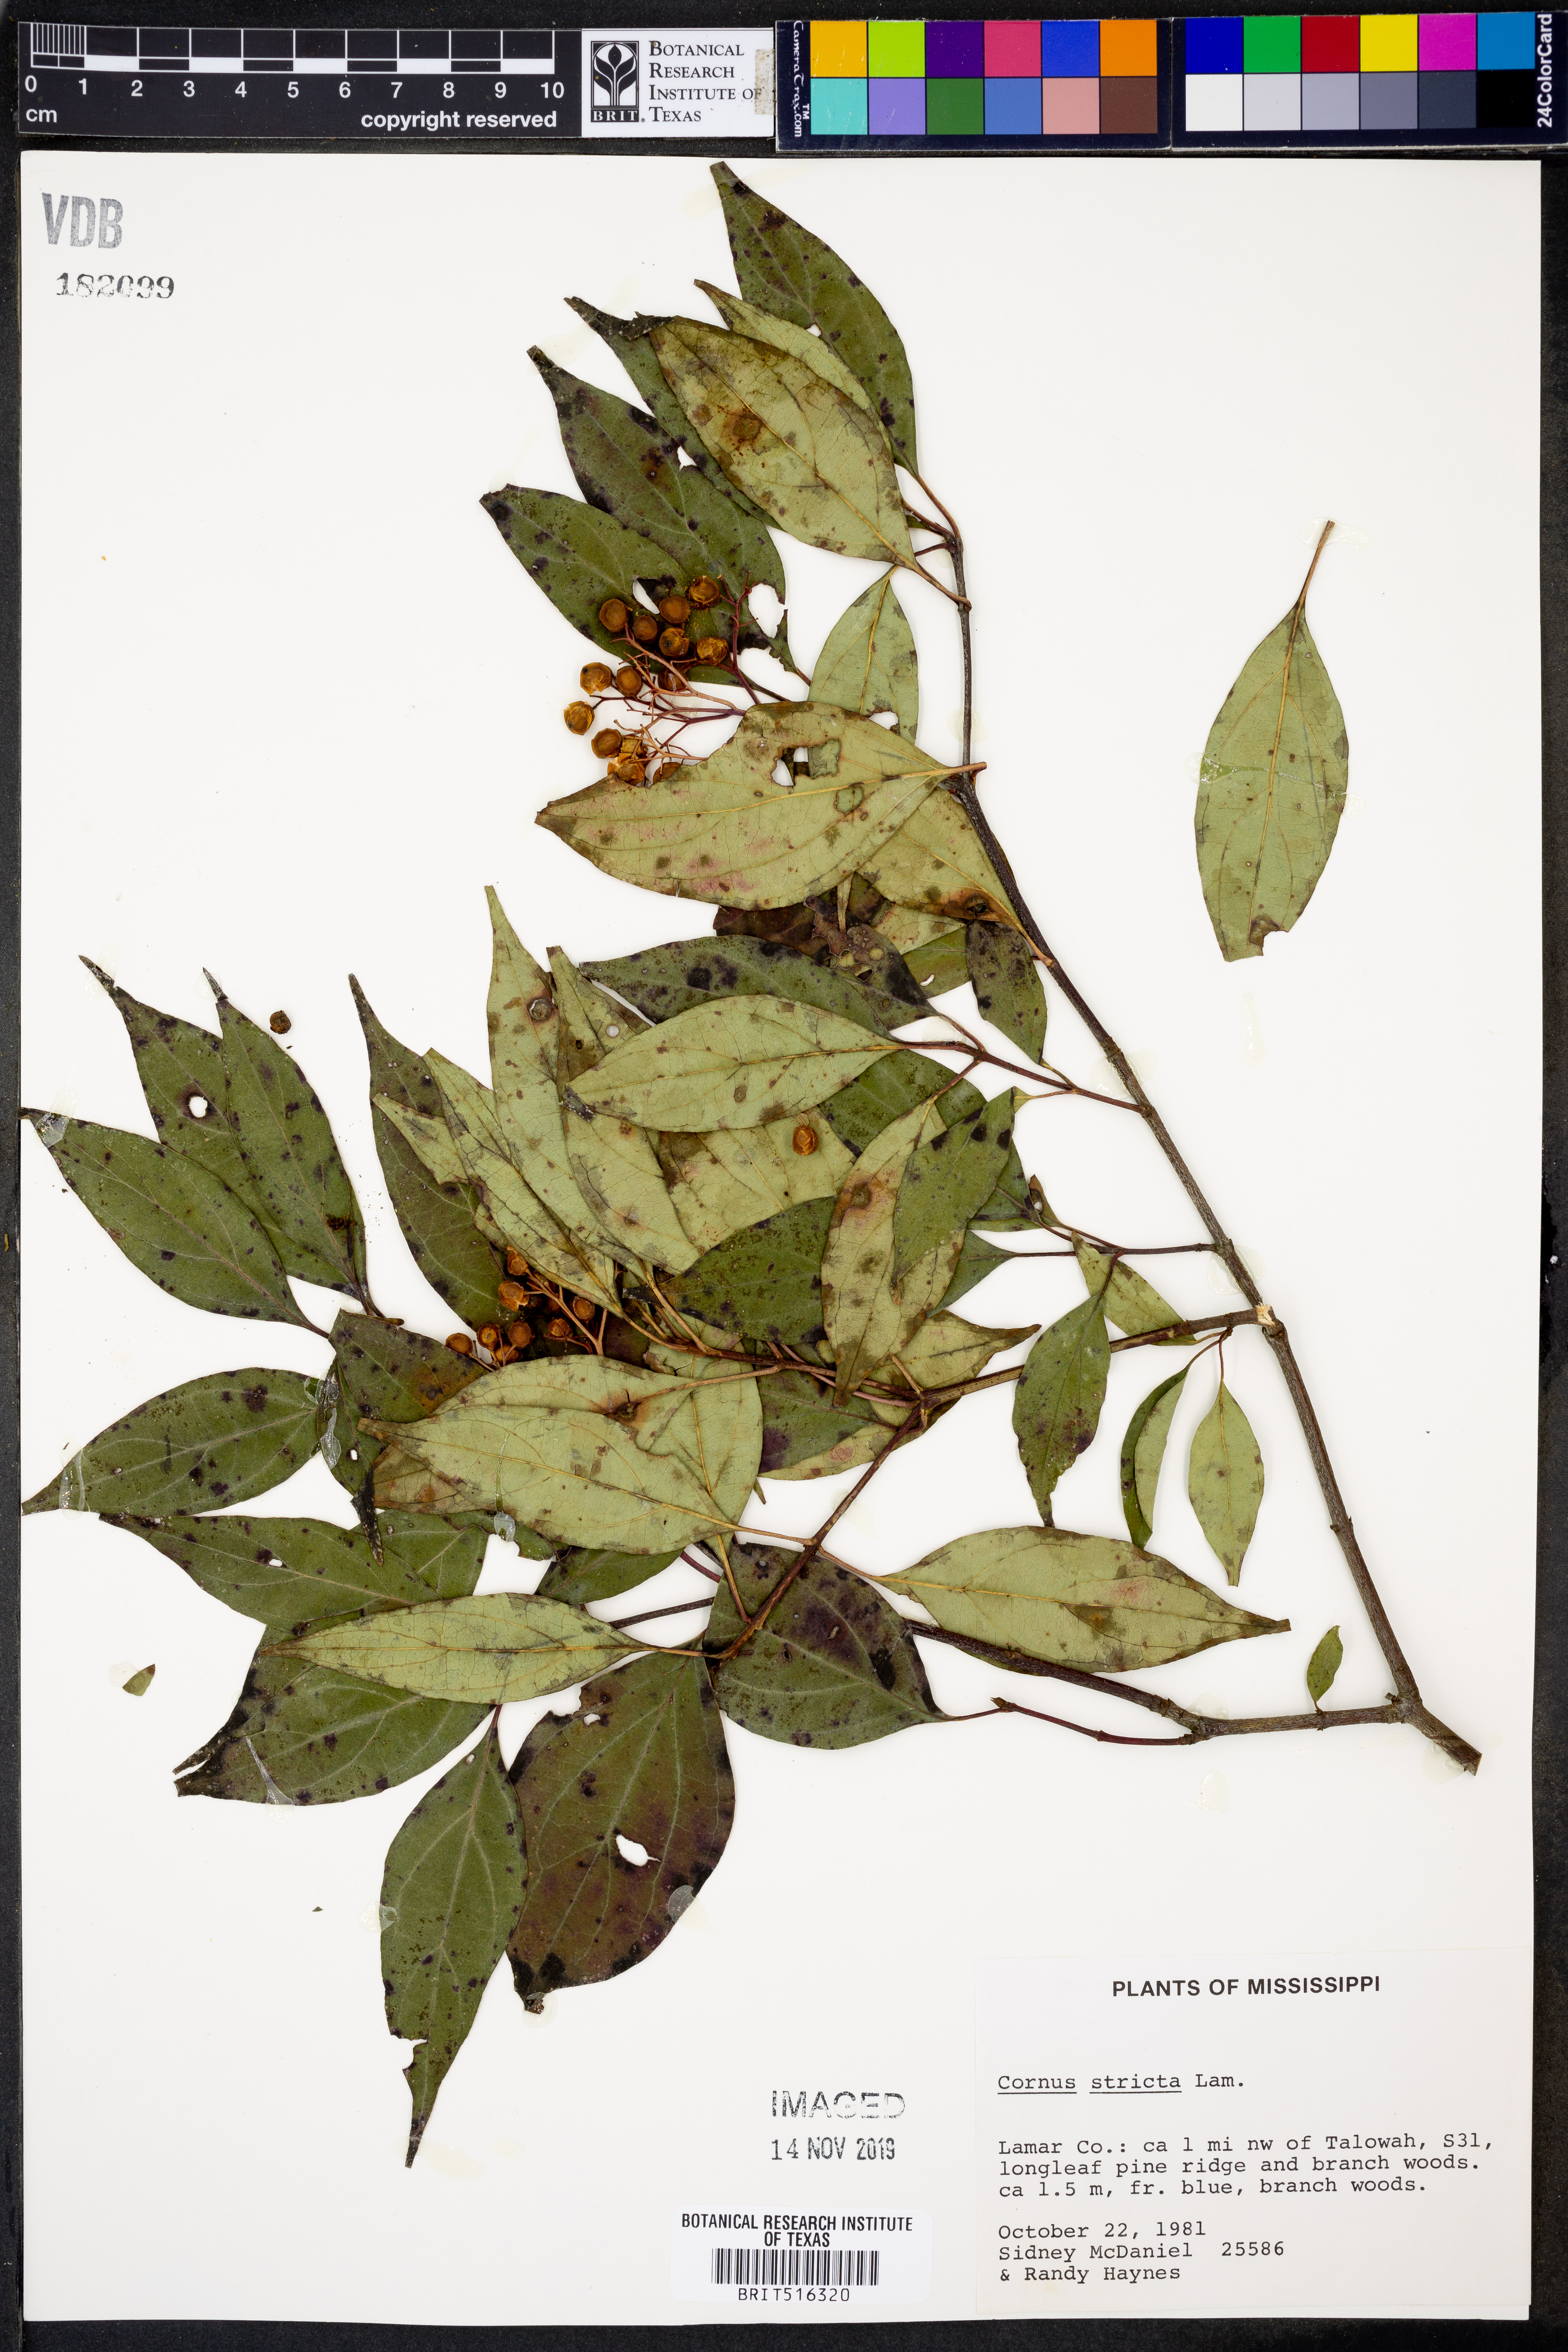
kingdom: Plantae
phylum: Tracheophyta
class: Magnoliopsida
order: Cornales
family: Cornaceae
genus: Cornus
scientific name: Cornus foemina
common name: Swamp dogwood
